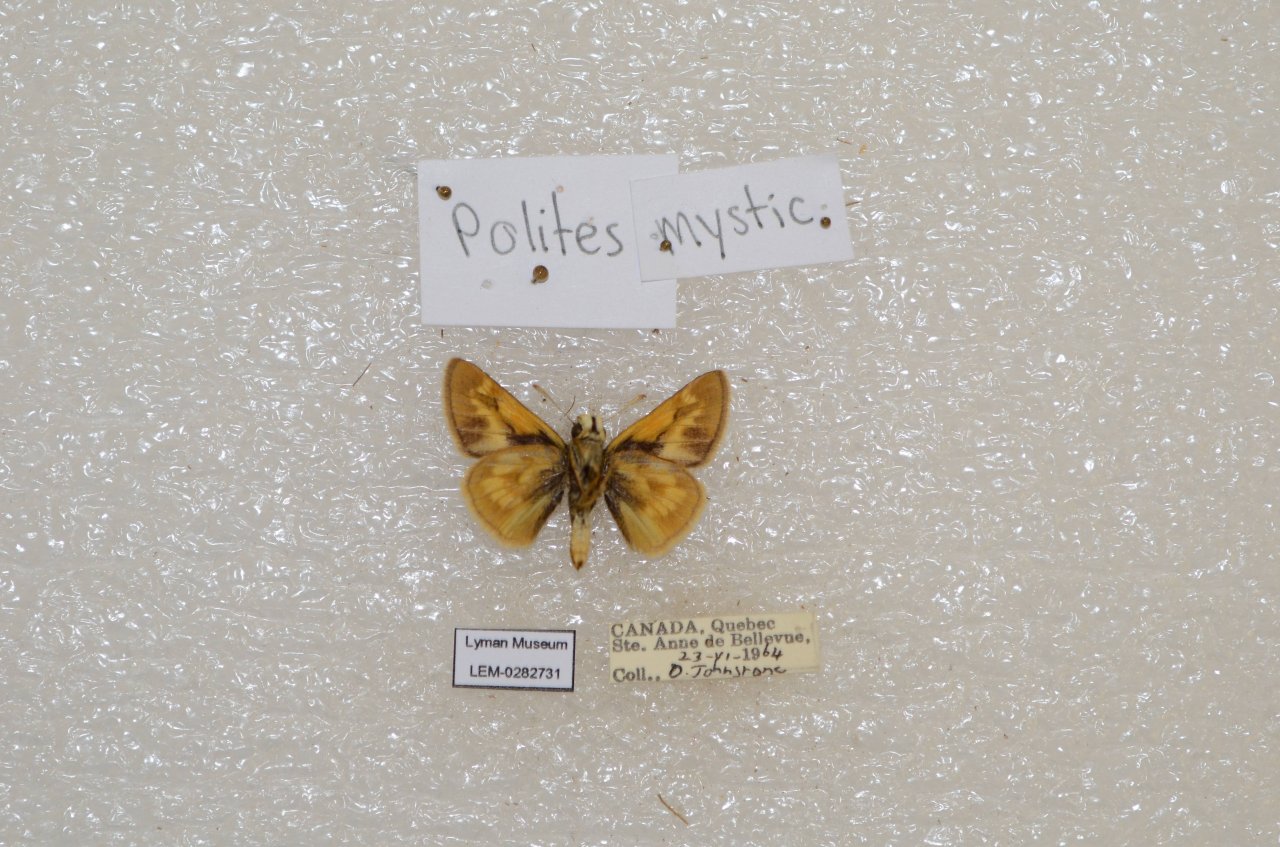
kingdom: Animalia
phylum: Arthropoda
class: Insecta
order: Lepidoptera
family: Hesperiidae
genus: Polites
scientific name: Polites
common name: Long Dash Skipper
